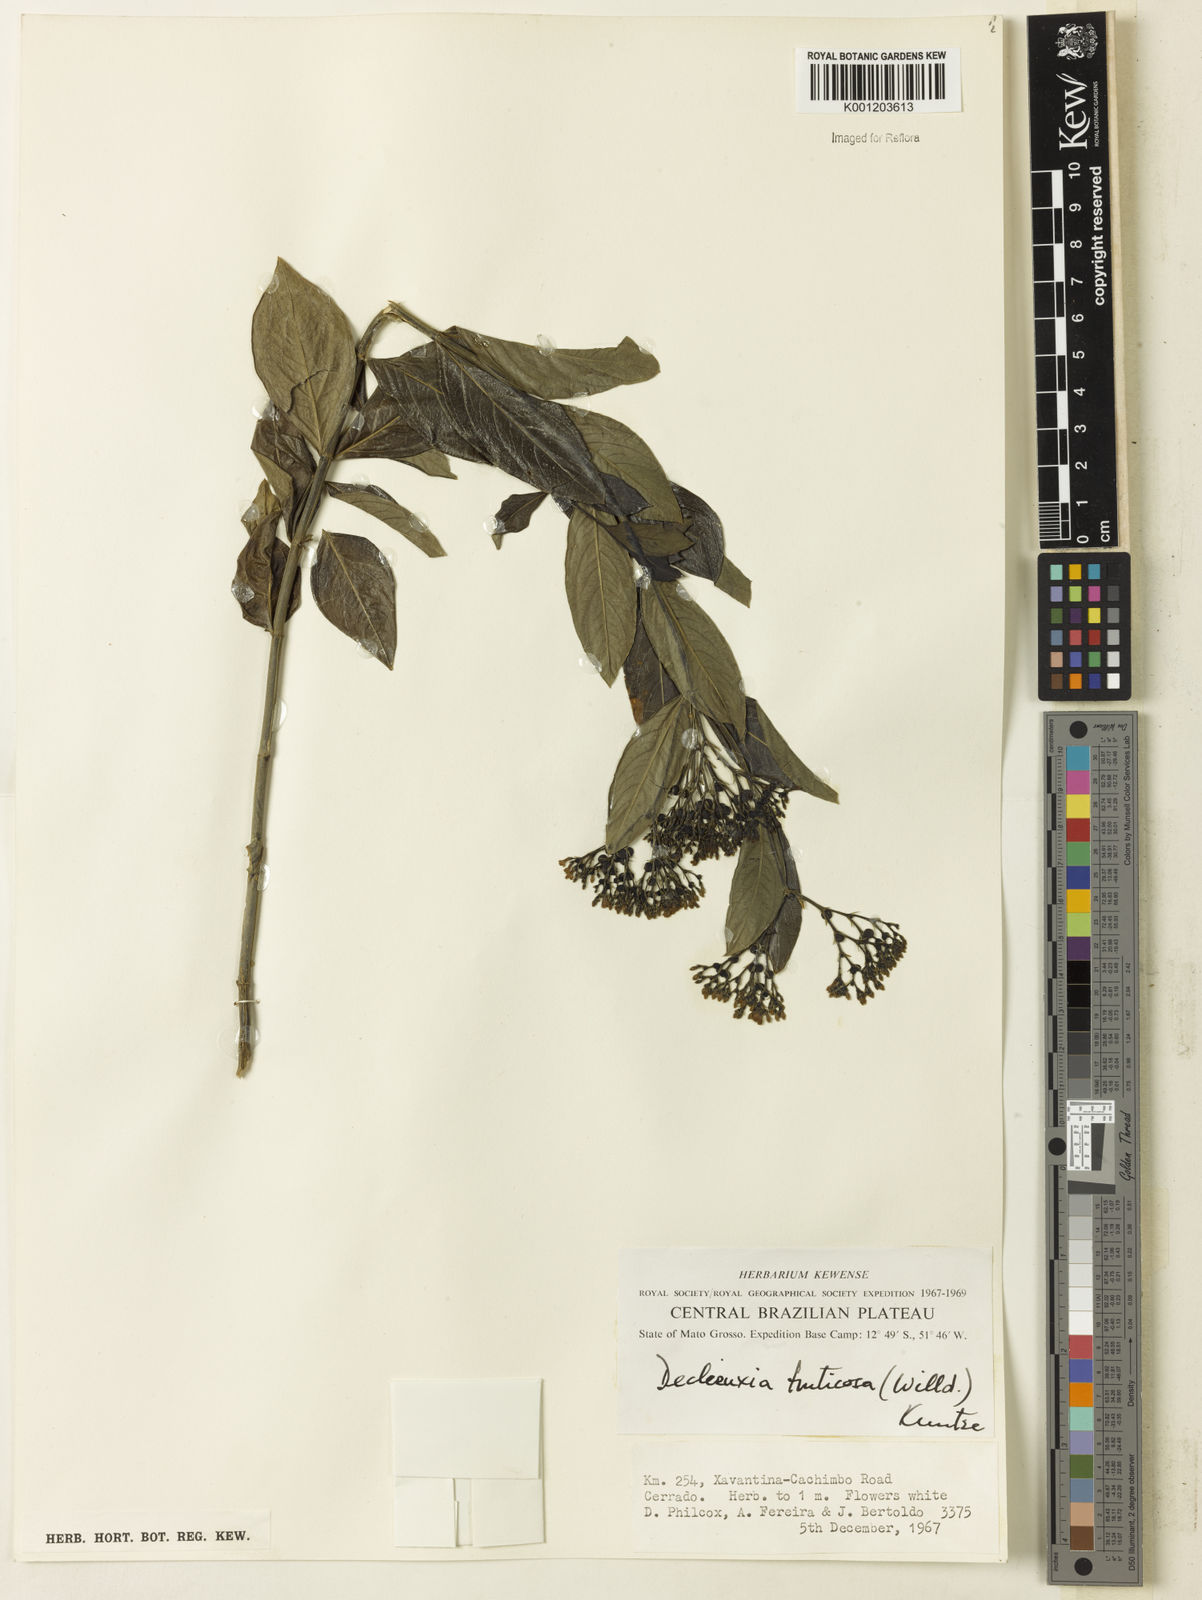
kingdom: Plantae
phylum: Tracheophyta
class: Magnoliopsida
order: Gentianales
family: Rubiaceae
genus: Declieuxia
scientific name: Declieuxia fruticosa
